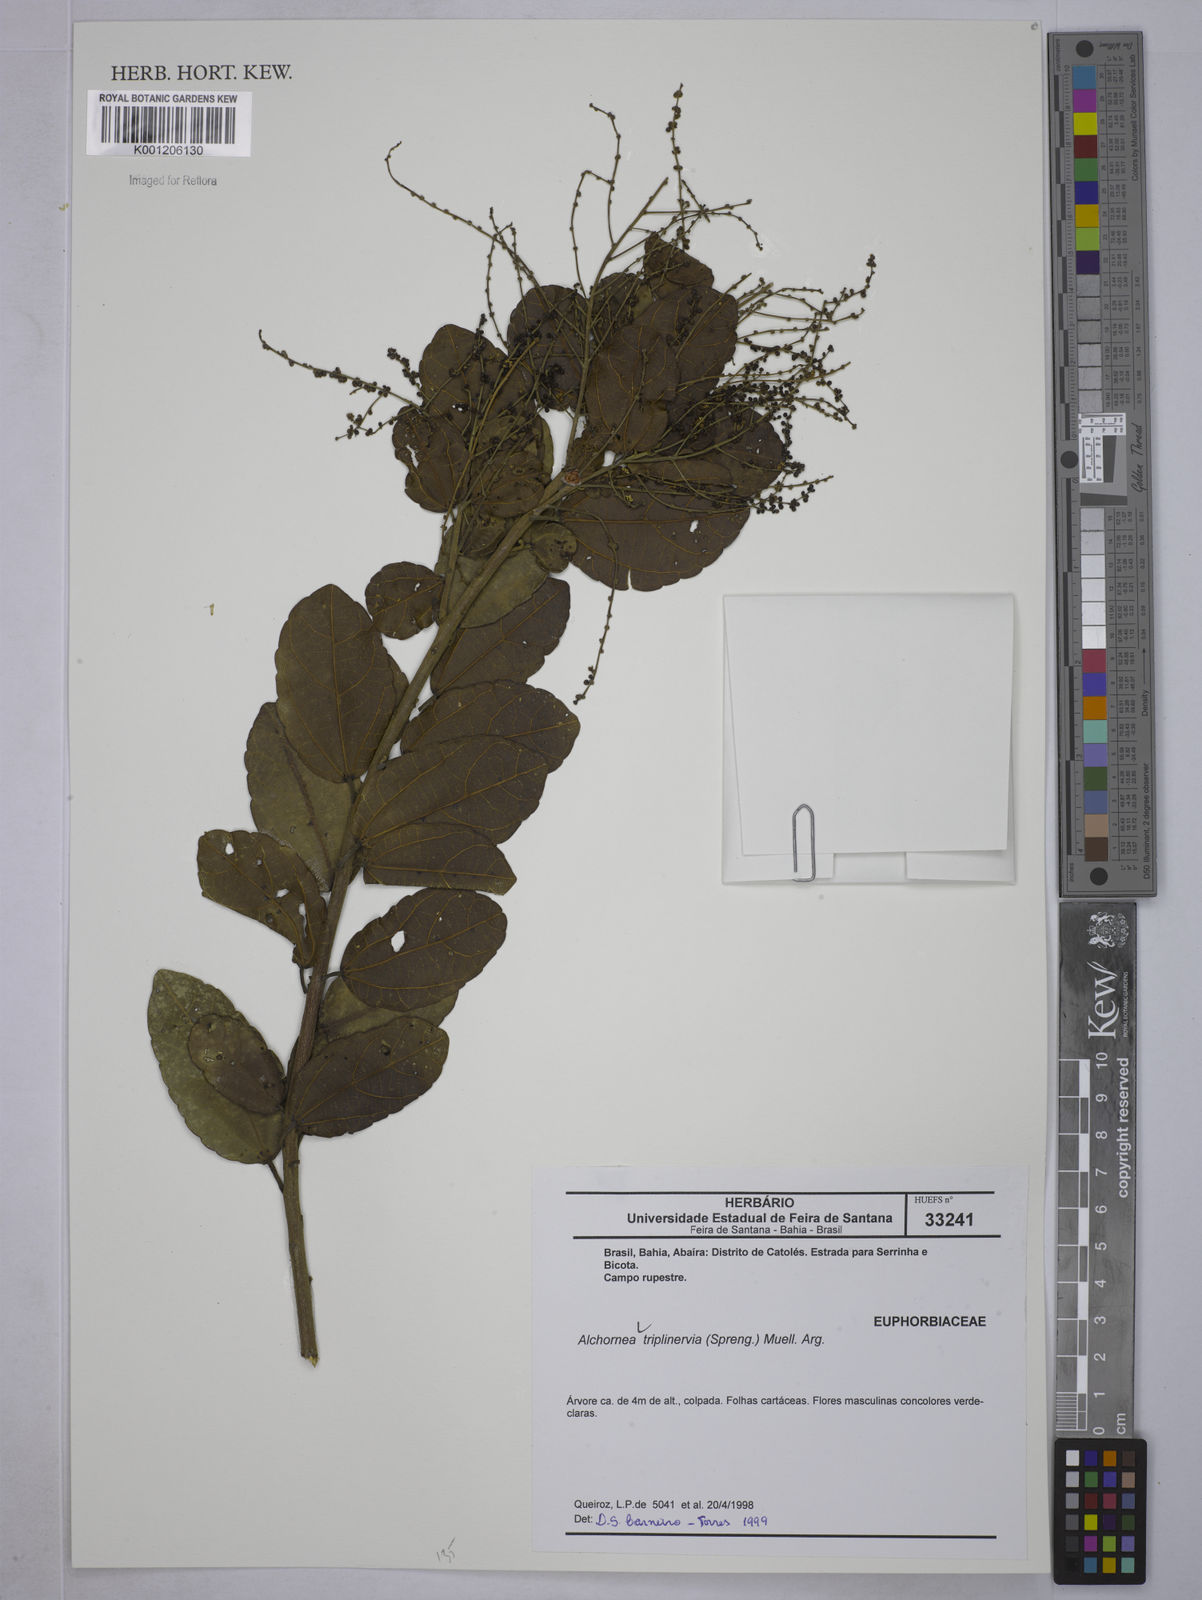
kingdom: Plantae
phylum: Tracheophyta
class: Magnoliopsida
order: Malpighiales
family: Euphorbiaceae
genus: Alchornea
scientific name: Alchornea
